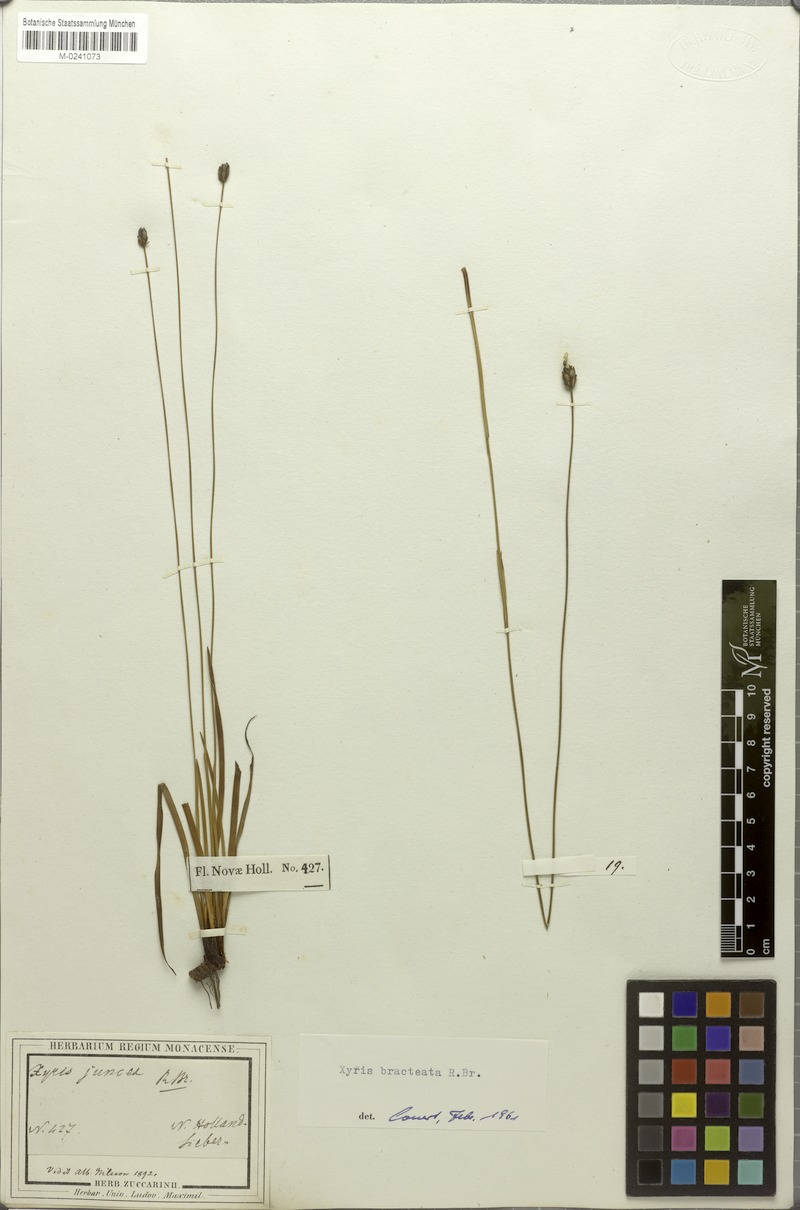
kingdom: Plantae
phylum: Tracheophyta
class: Liliopsida
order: Poales
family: Xyridaceae
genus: Xyris
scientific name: Xyris bracteata
